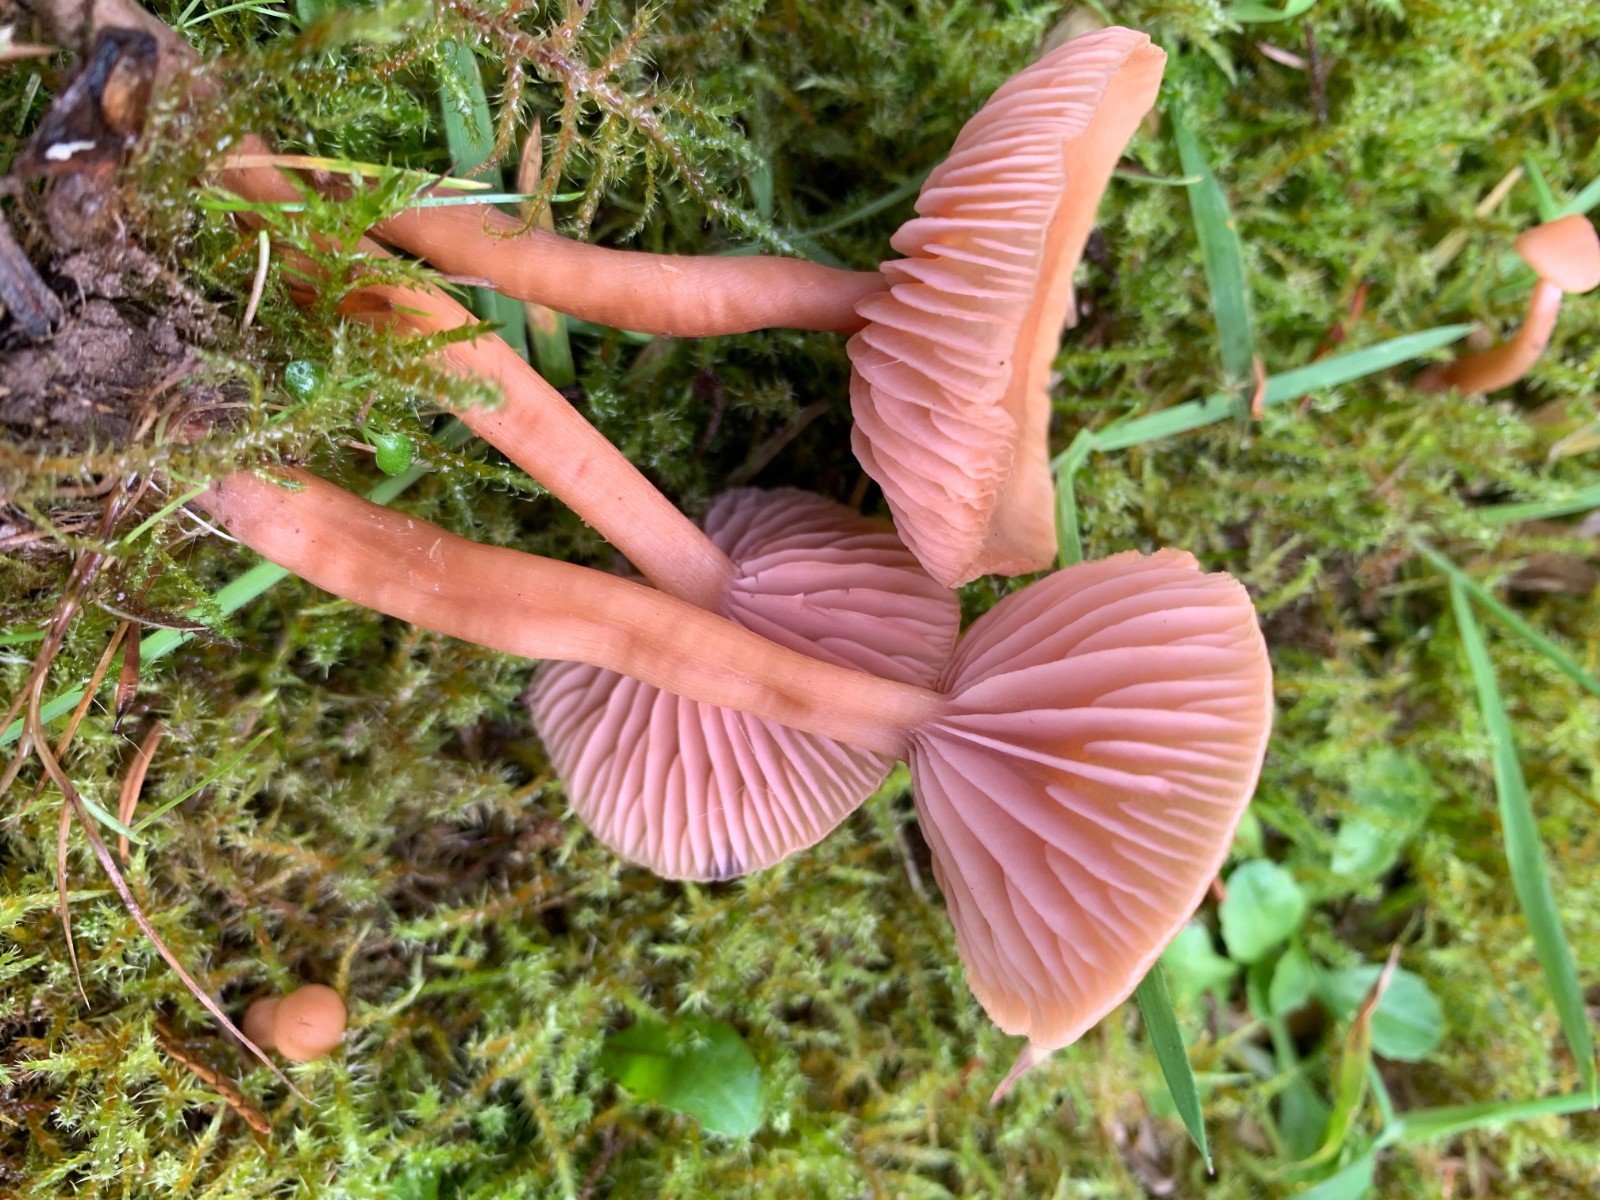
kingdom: Fungi
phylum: Basidiomycota
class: Agaricomycetes
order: Agaricales
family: Hydnangiaceae
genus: Laccaria
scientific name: Laccaria laccata
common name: rød ametysthat
